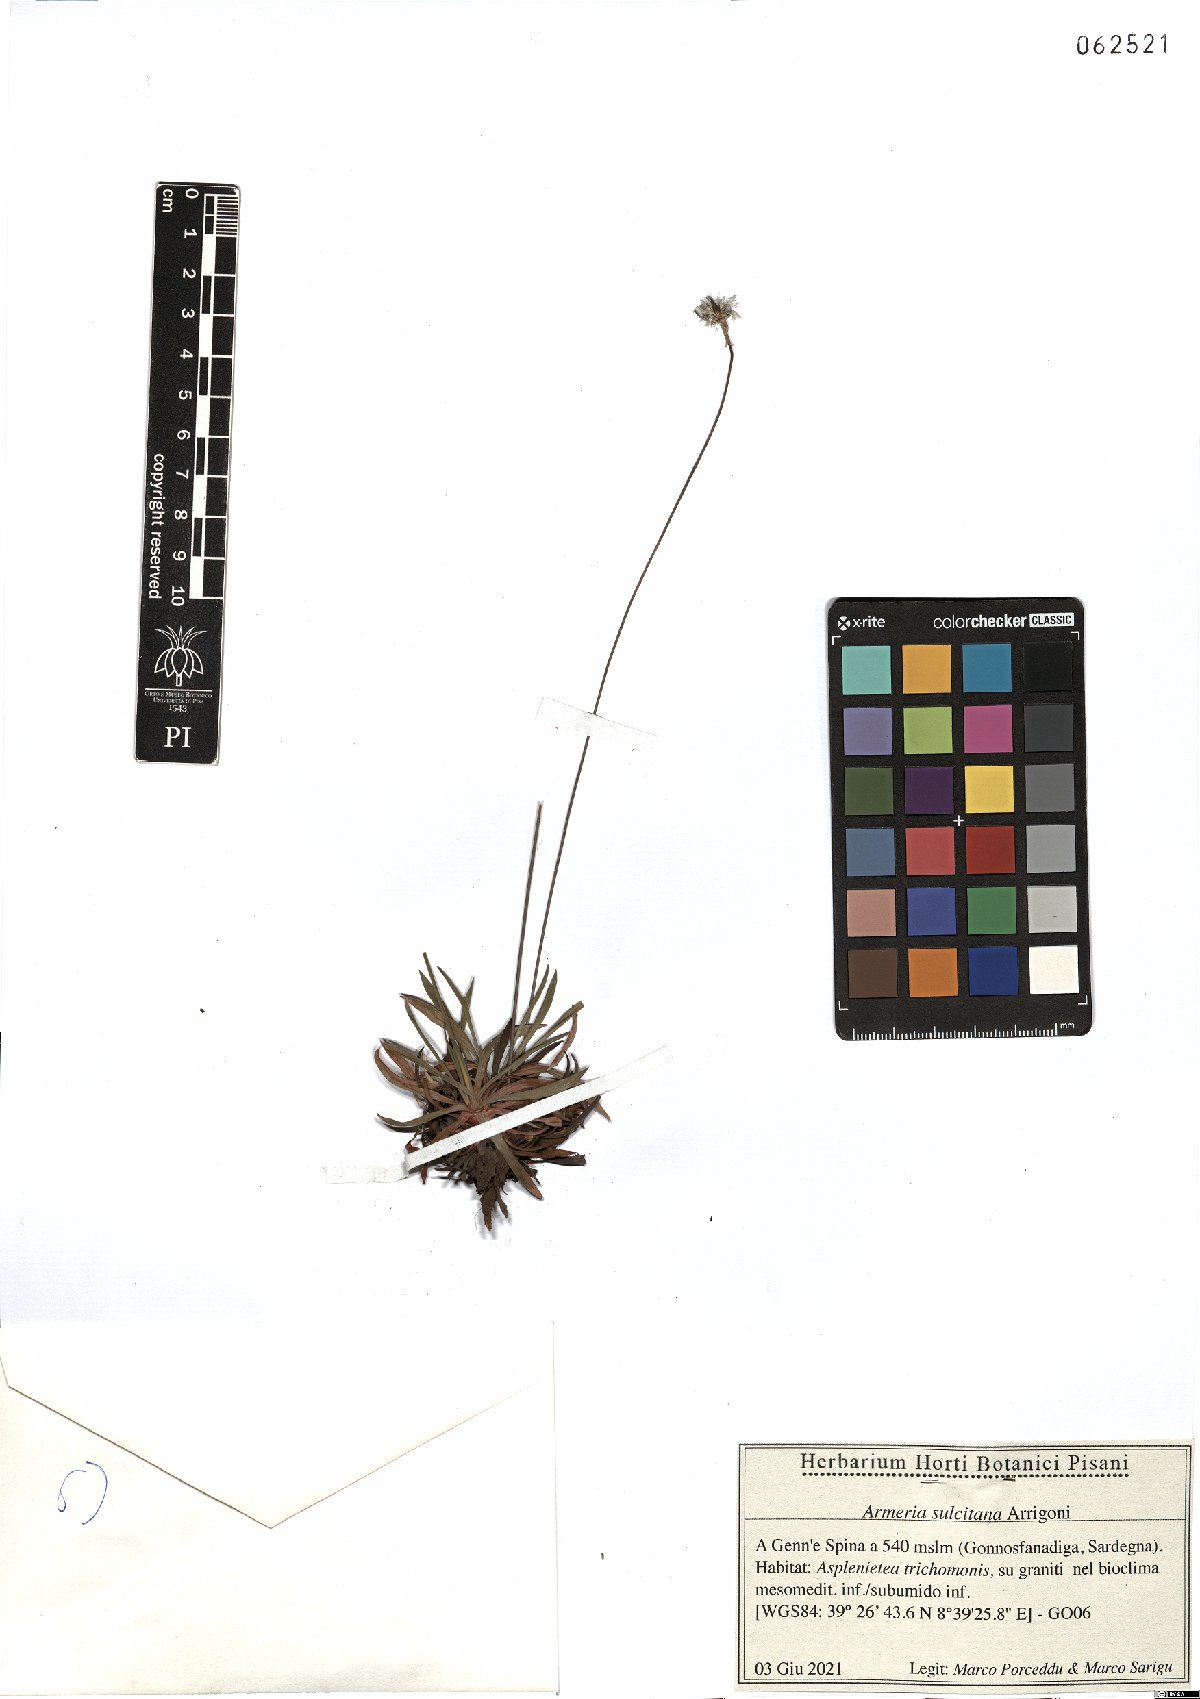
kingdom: Plantae
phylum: Tracheophyta
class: Magnoliopsida
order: Caryophyllales
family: Plumbaginaceae
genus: Armeria
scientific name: Armeria sulcitana
